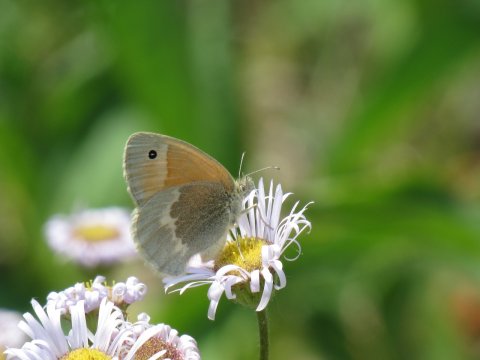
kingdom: Animalia
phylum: Arthropoda
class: Insecta
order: Lepidoptera
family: Nymphalidae
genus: Coenonympha
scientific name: Coenonympha tullia
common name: Large Heath
